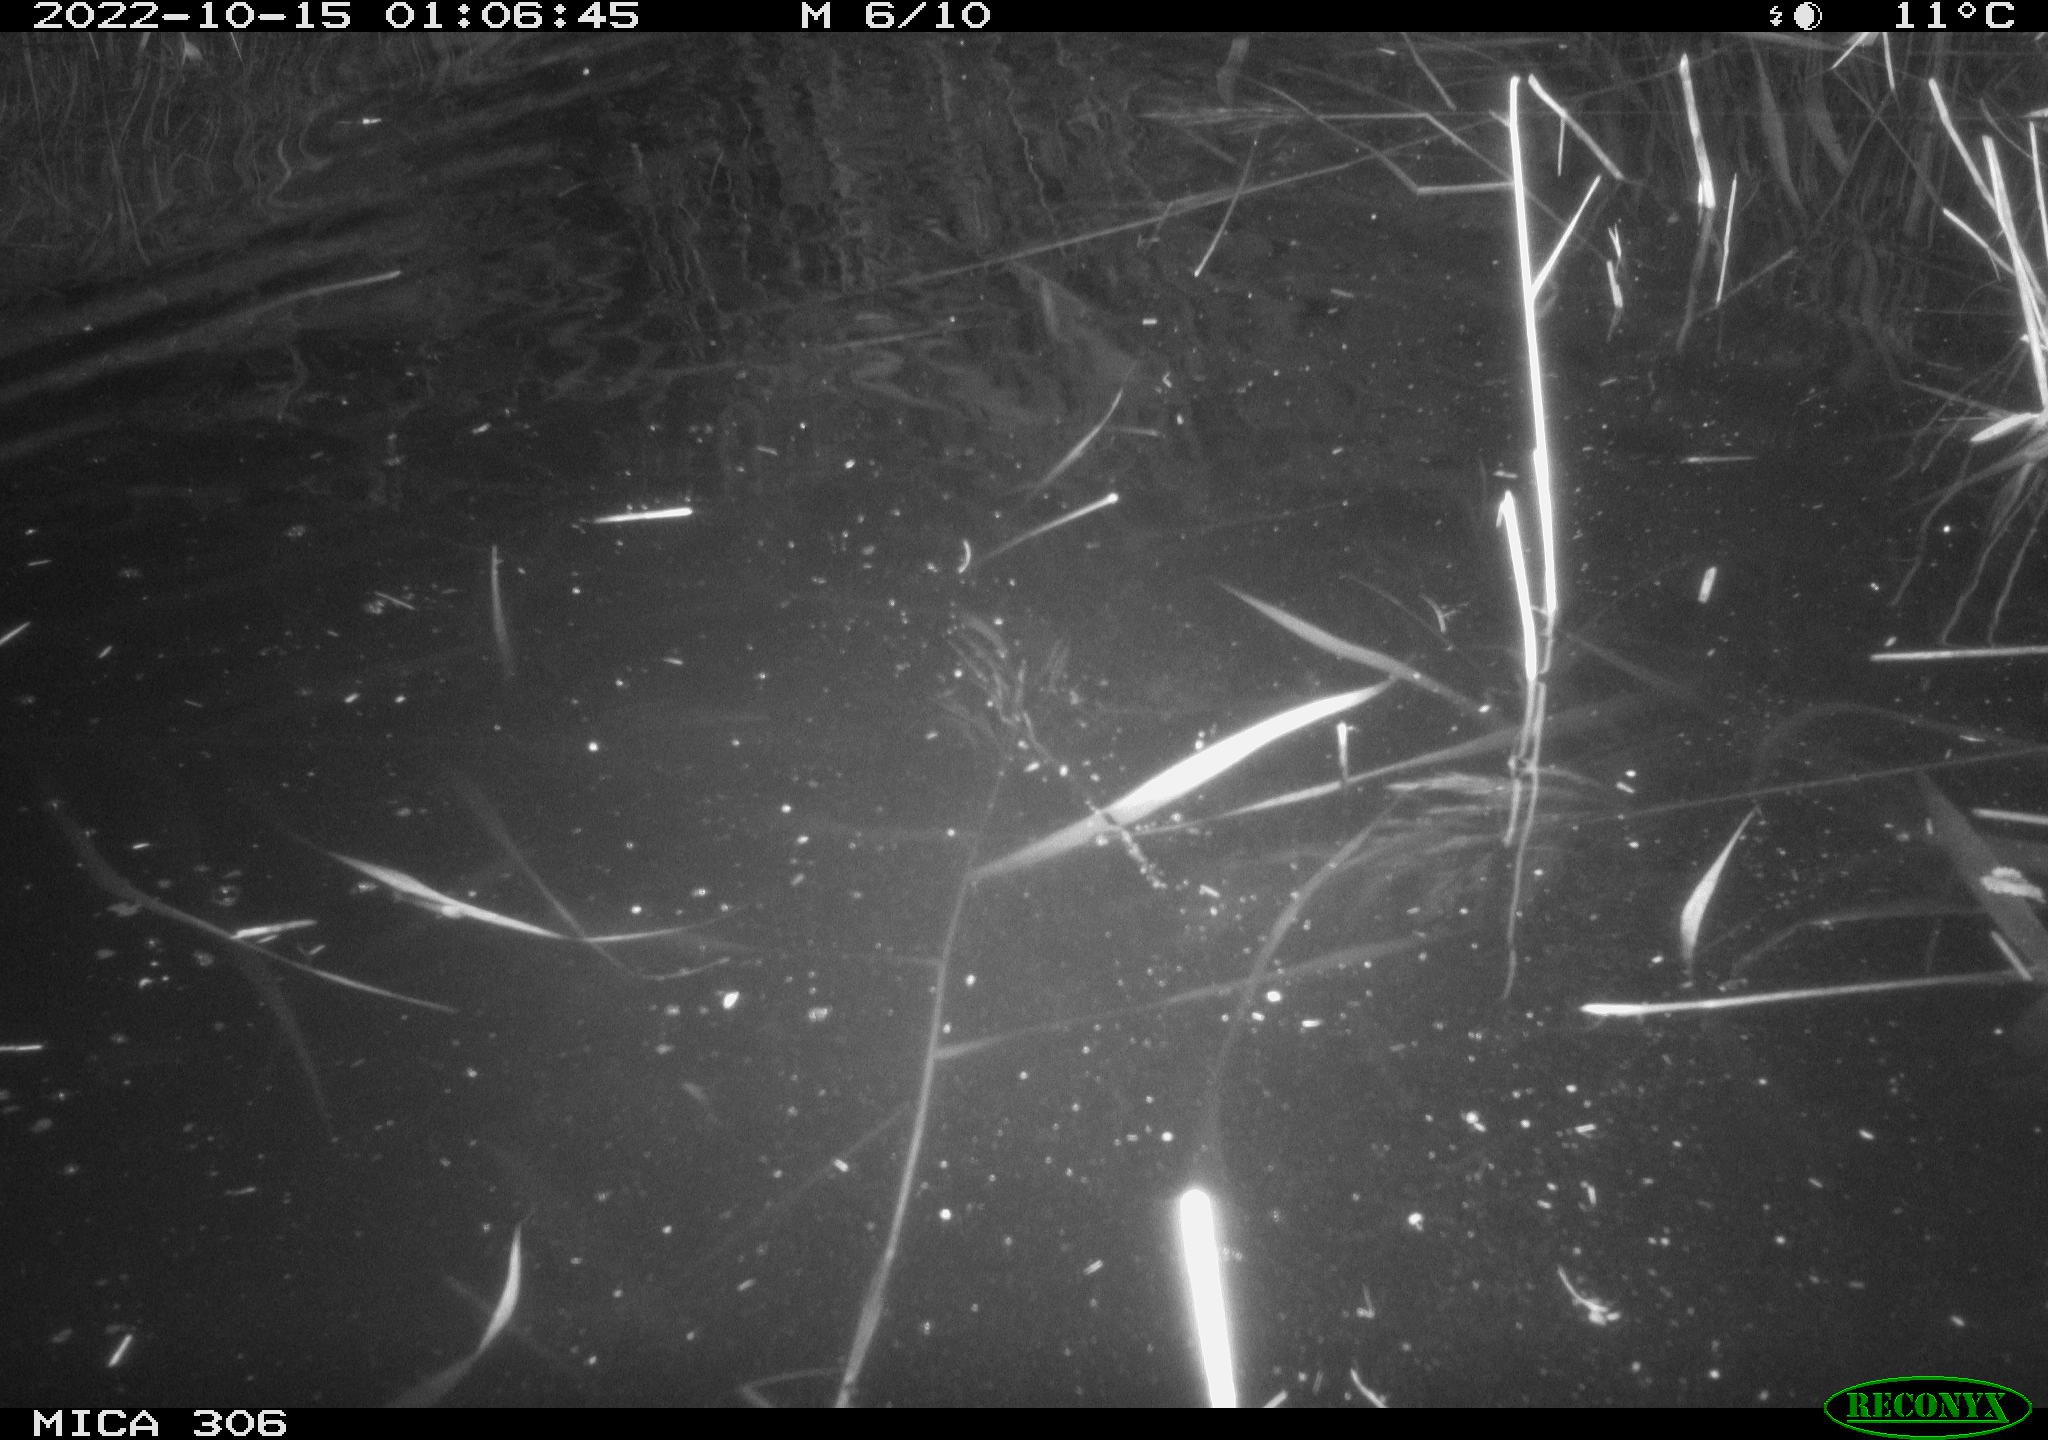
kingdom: Animalia
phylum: Chordata
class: Mammalia
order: Rodentia
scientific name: Rodentia
